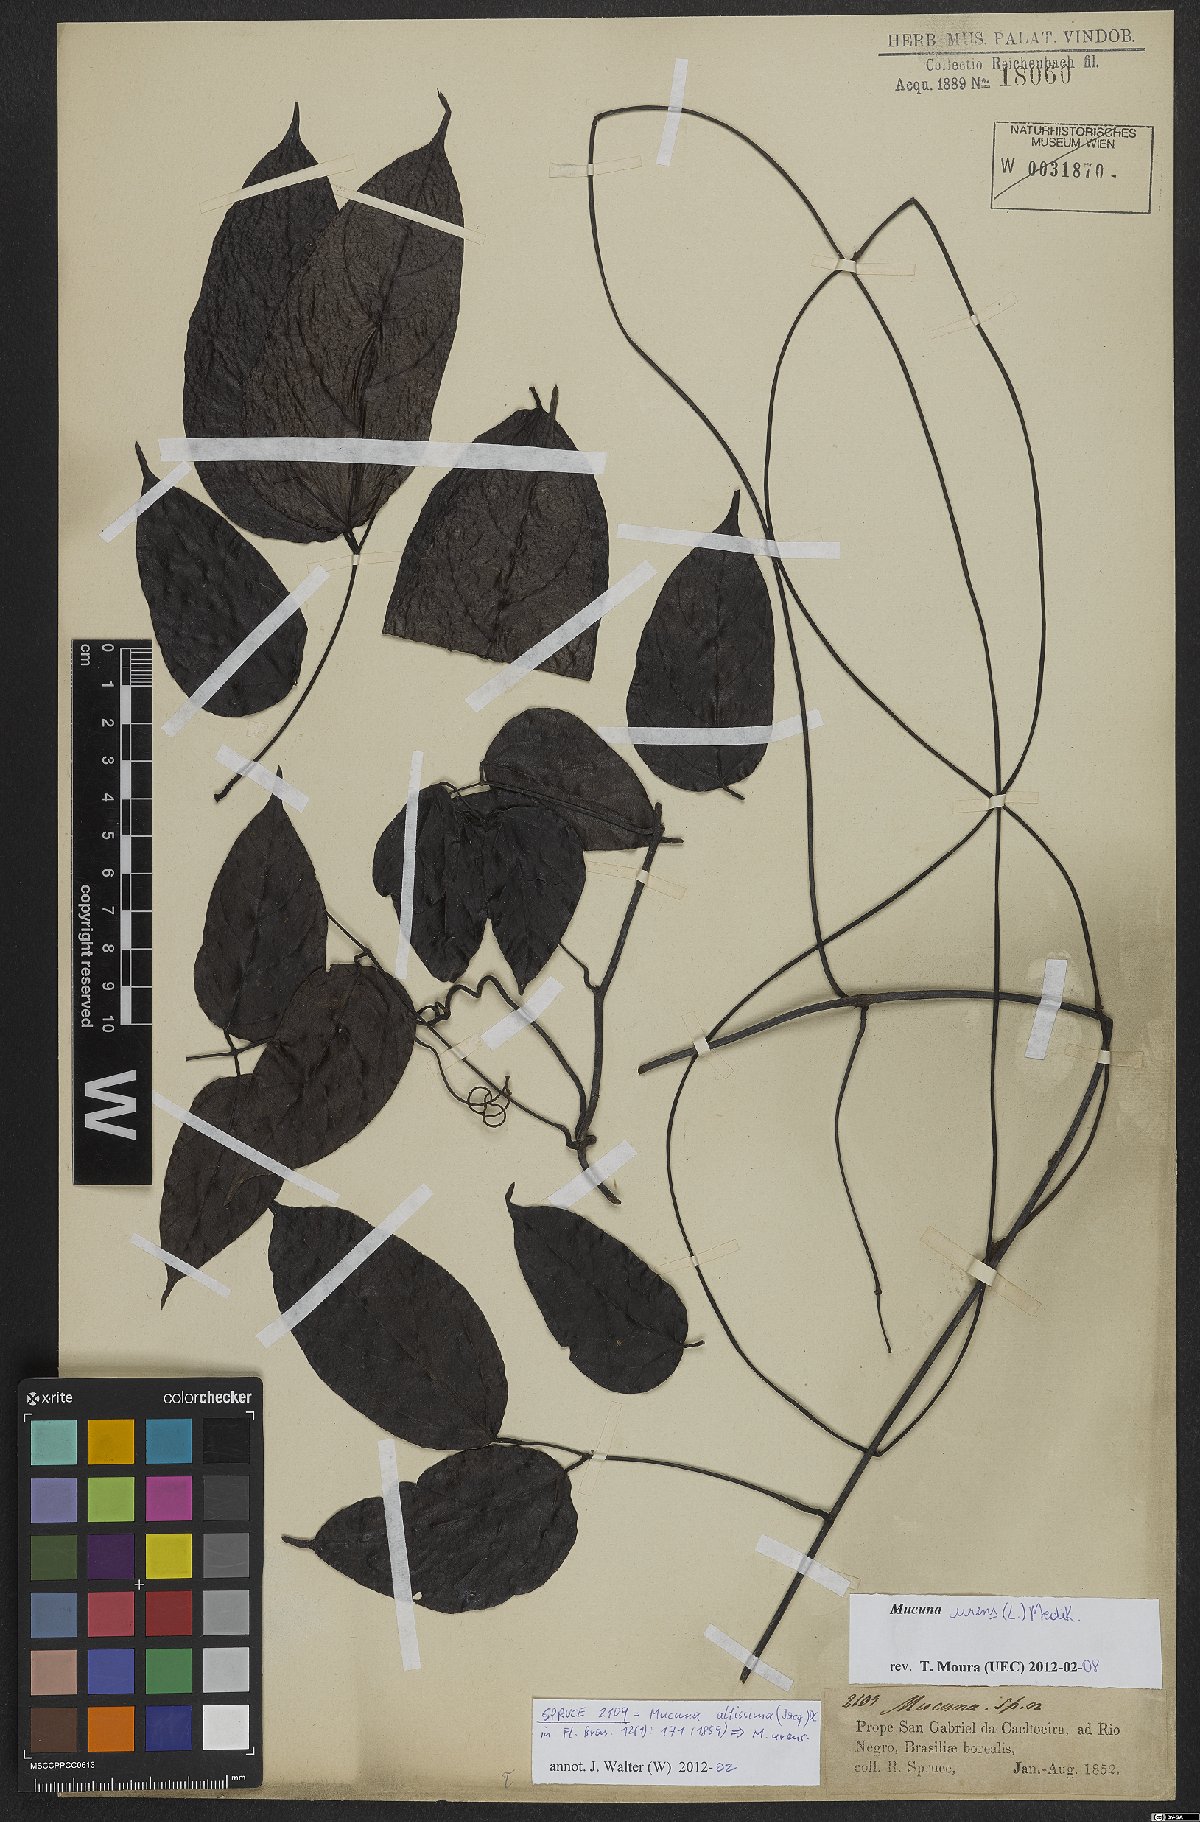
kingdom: Plantae
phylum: Tracheophyta
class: Magnoliopsida
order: Fabales
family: Fabaceae
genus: Mucuna
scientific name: Mucuna urens
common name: Red hamburger bean
